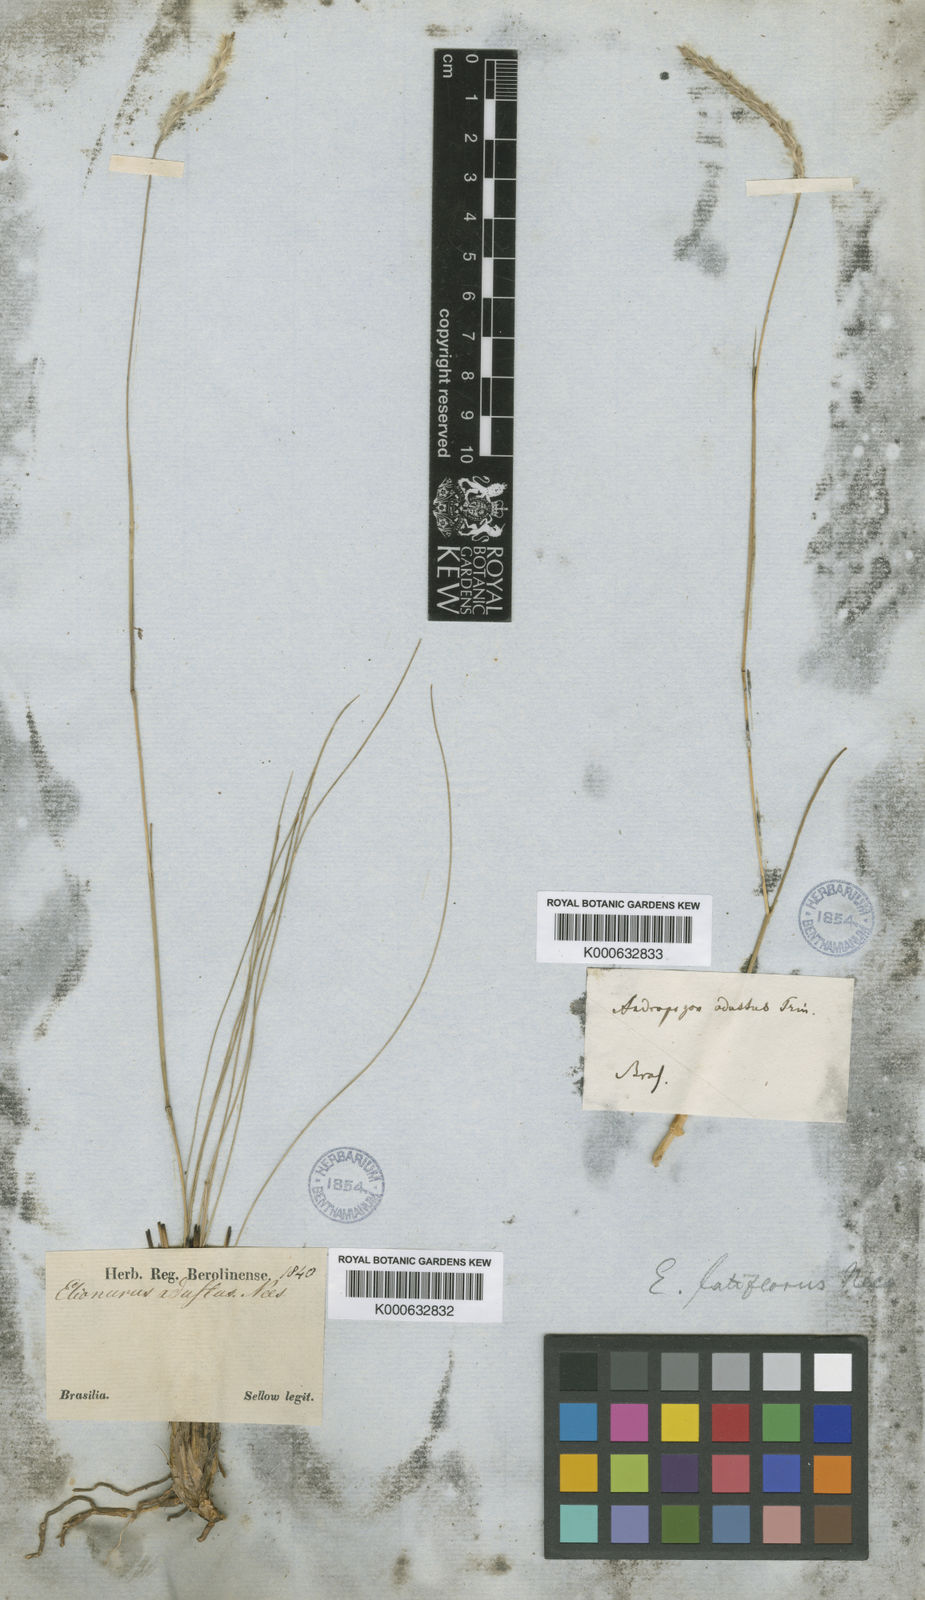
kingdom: Plantae
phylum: Tracheophyta
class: Liliopsida
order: Poales
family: Poaceae
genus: Elionurus
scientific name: Elionurus muticus
